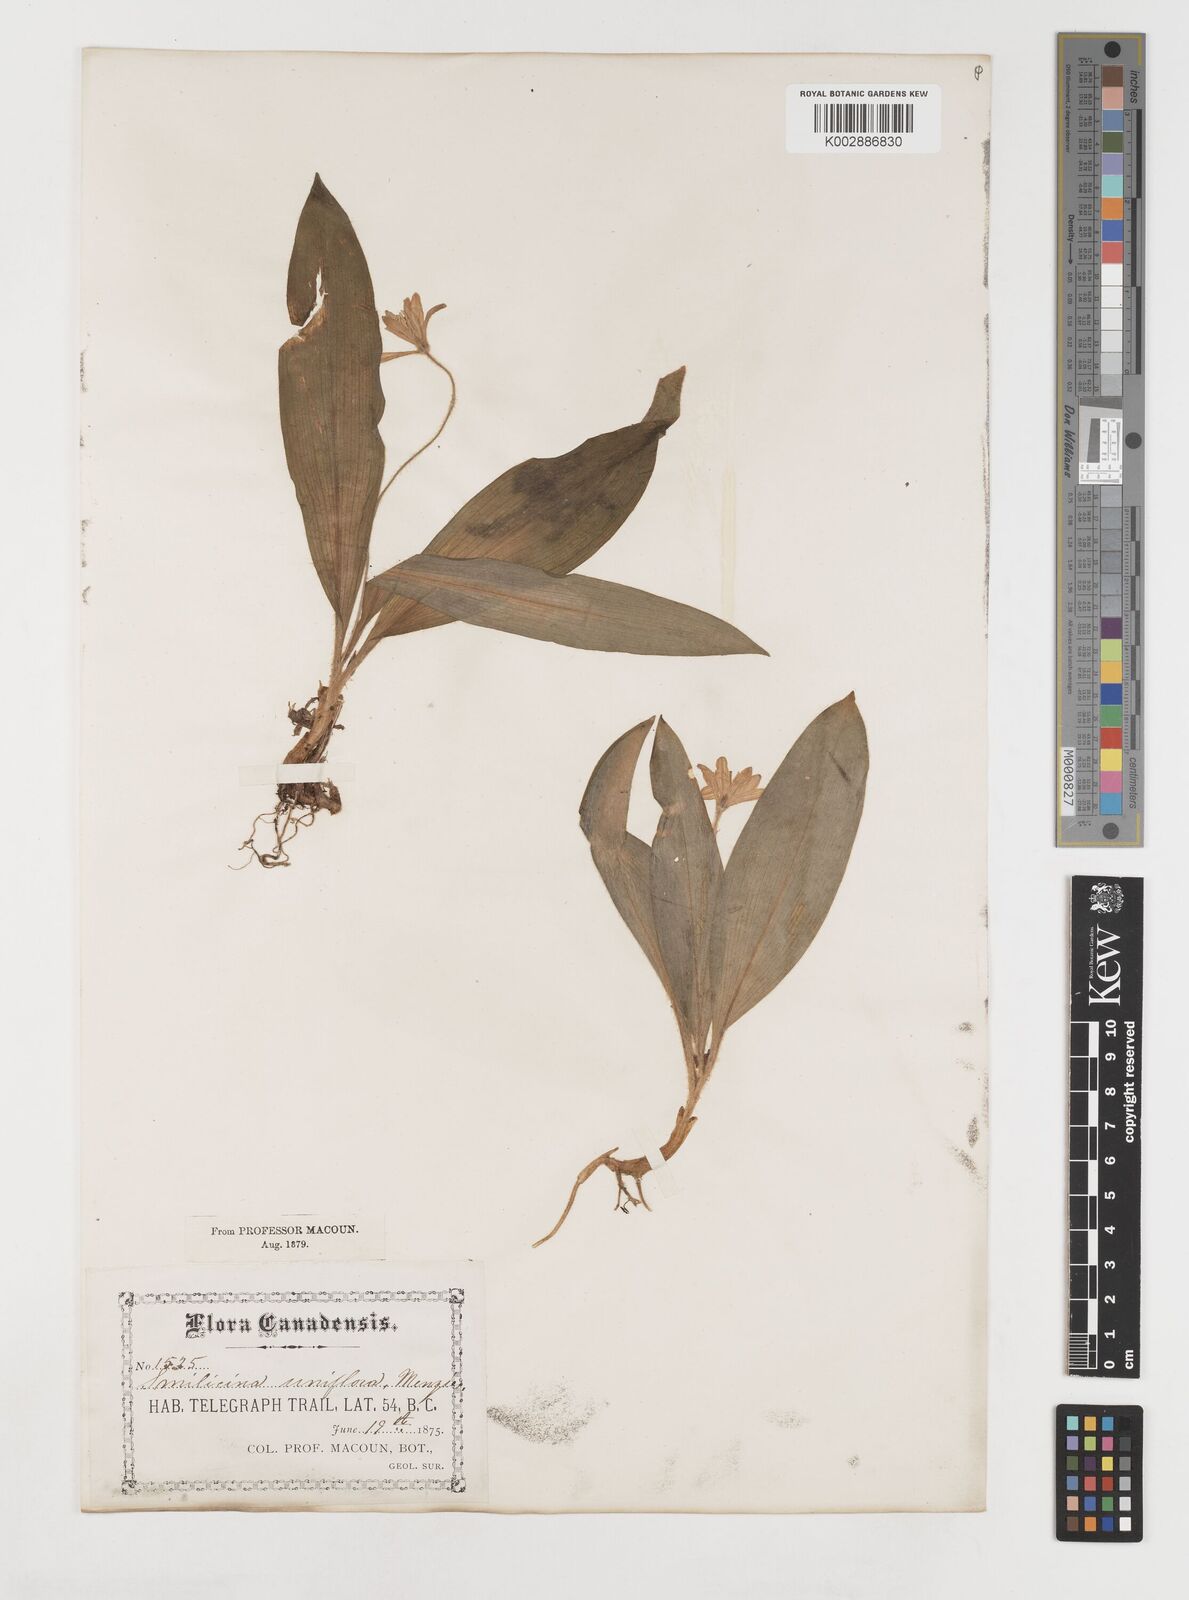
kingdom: Plantae
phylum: Tracheophyta
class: Liliopsida
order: Liliales
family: Liliaceae
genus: Clintonia
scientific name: Clintonia uniflora
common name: Queen's cup
